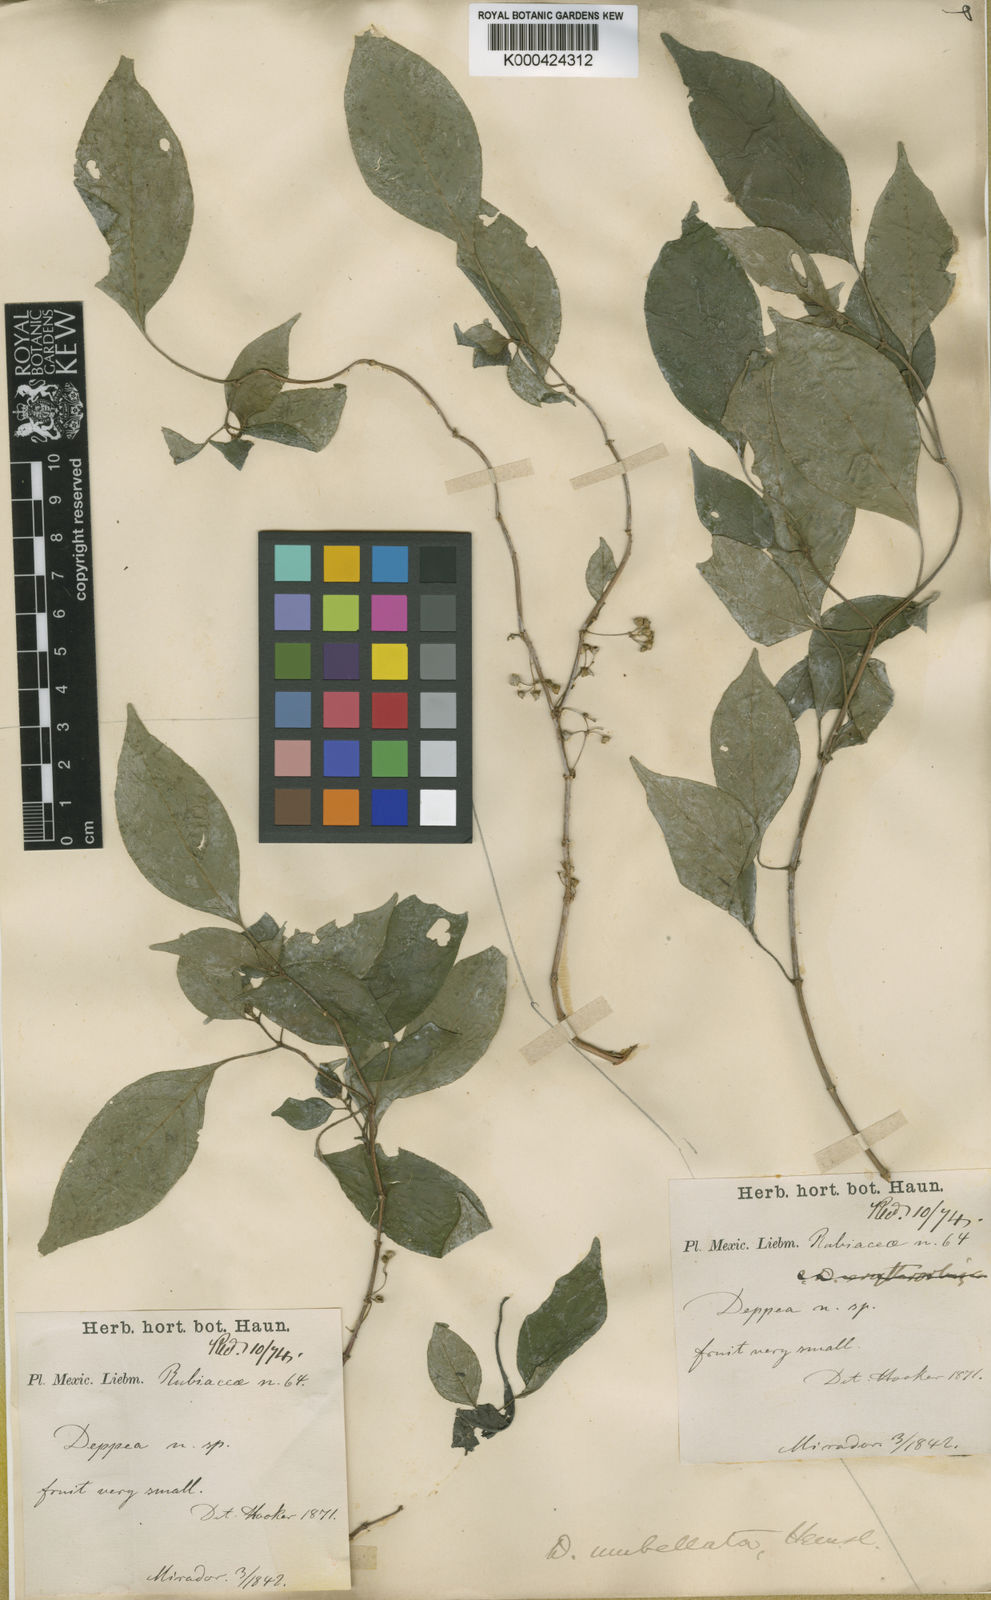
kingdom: Plantae
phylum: Tracheophyta
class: Magnoliopsida
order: Gentianales
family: Rubiaceae
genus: Deppea
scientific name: Deppea umbellata
